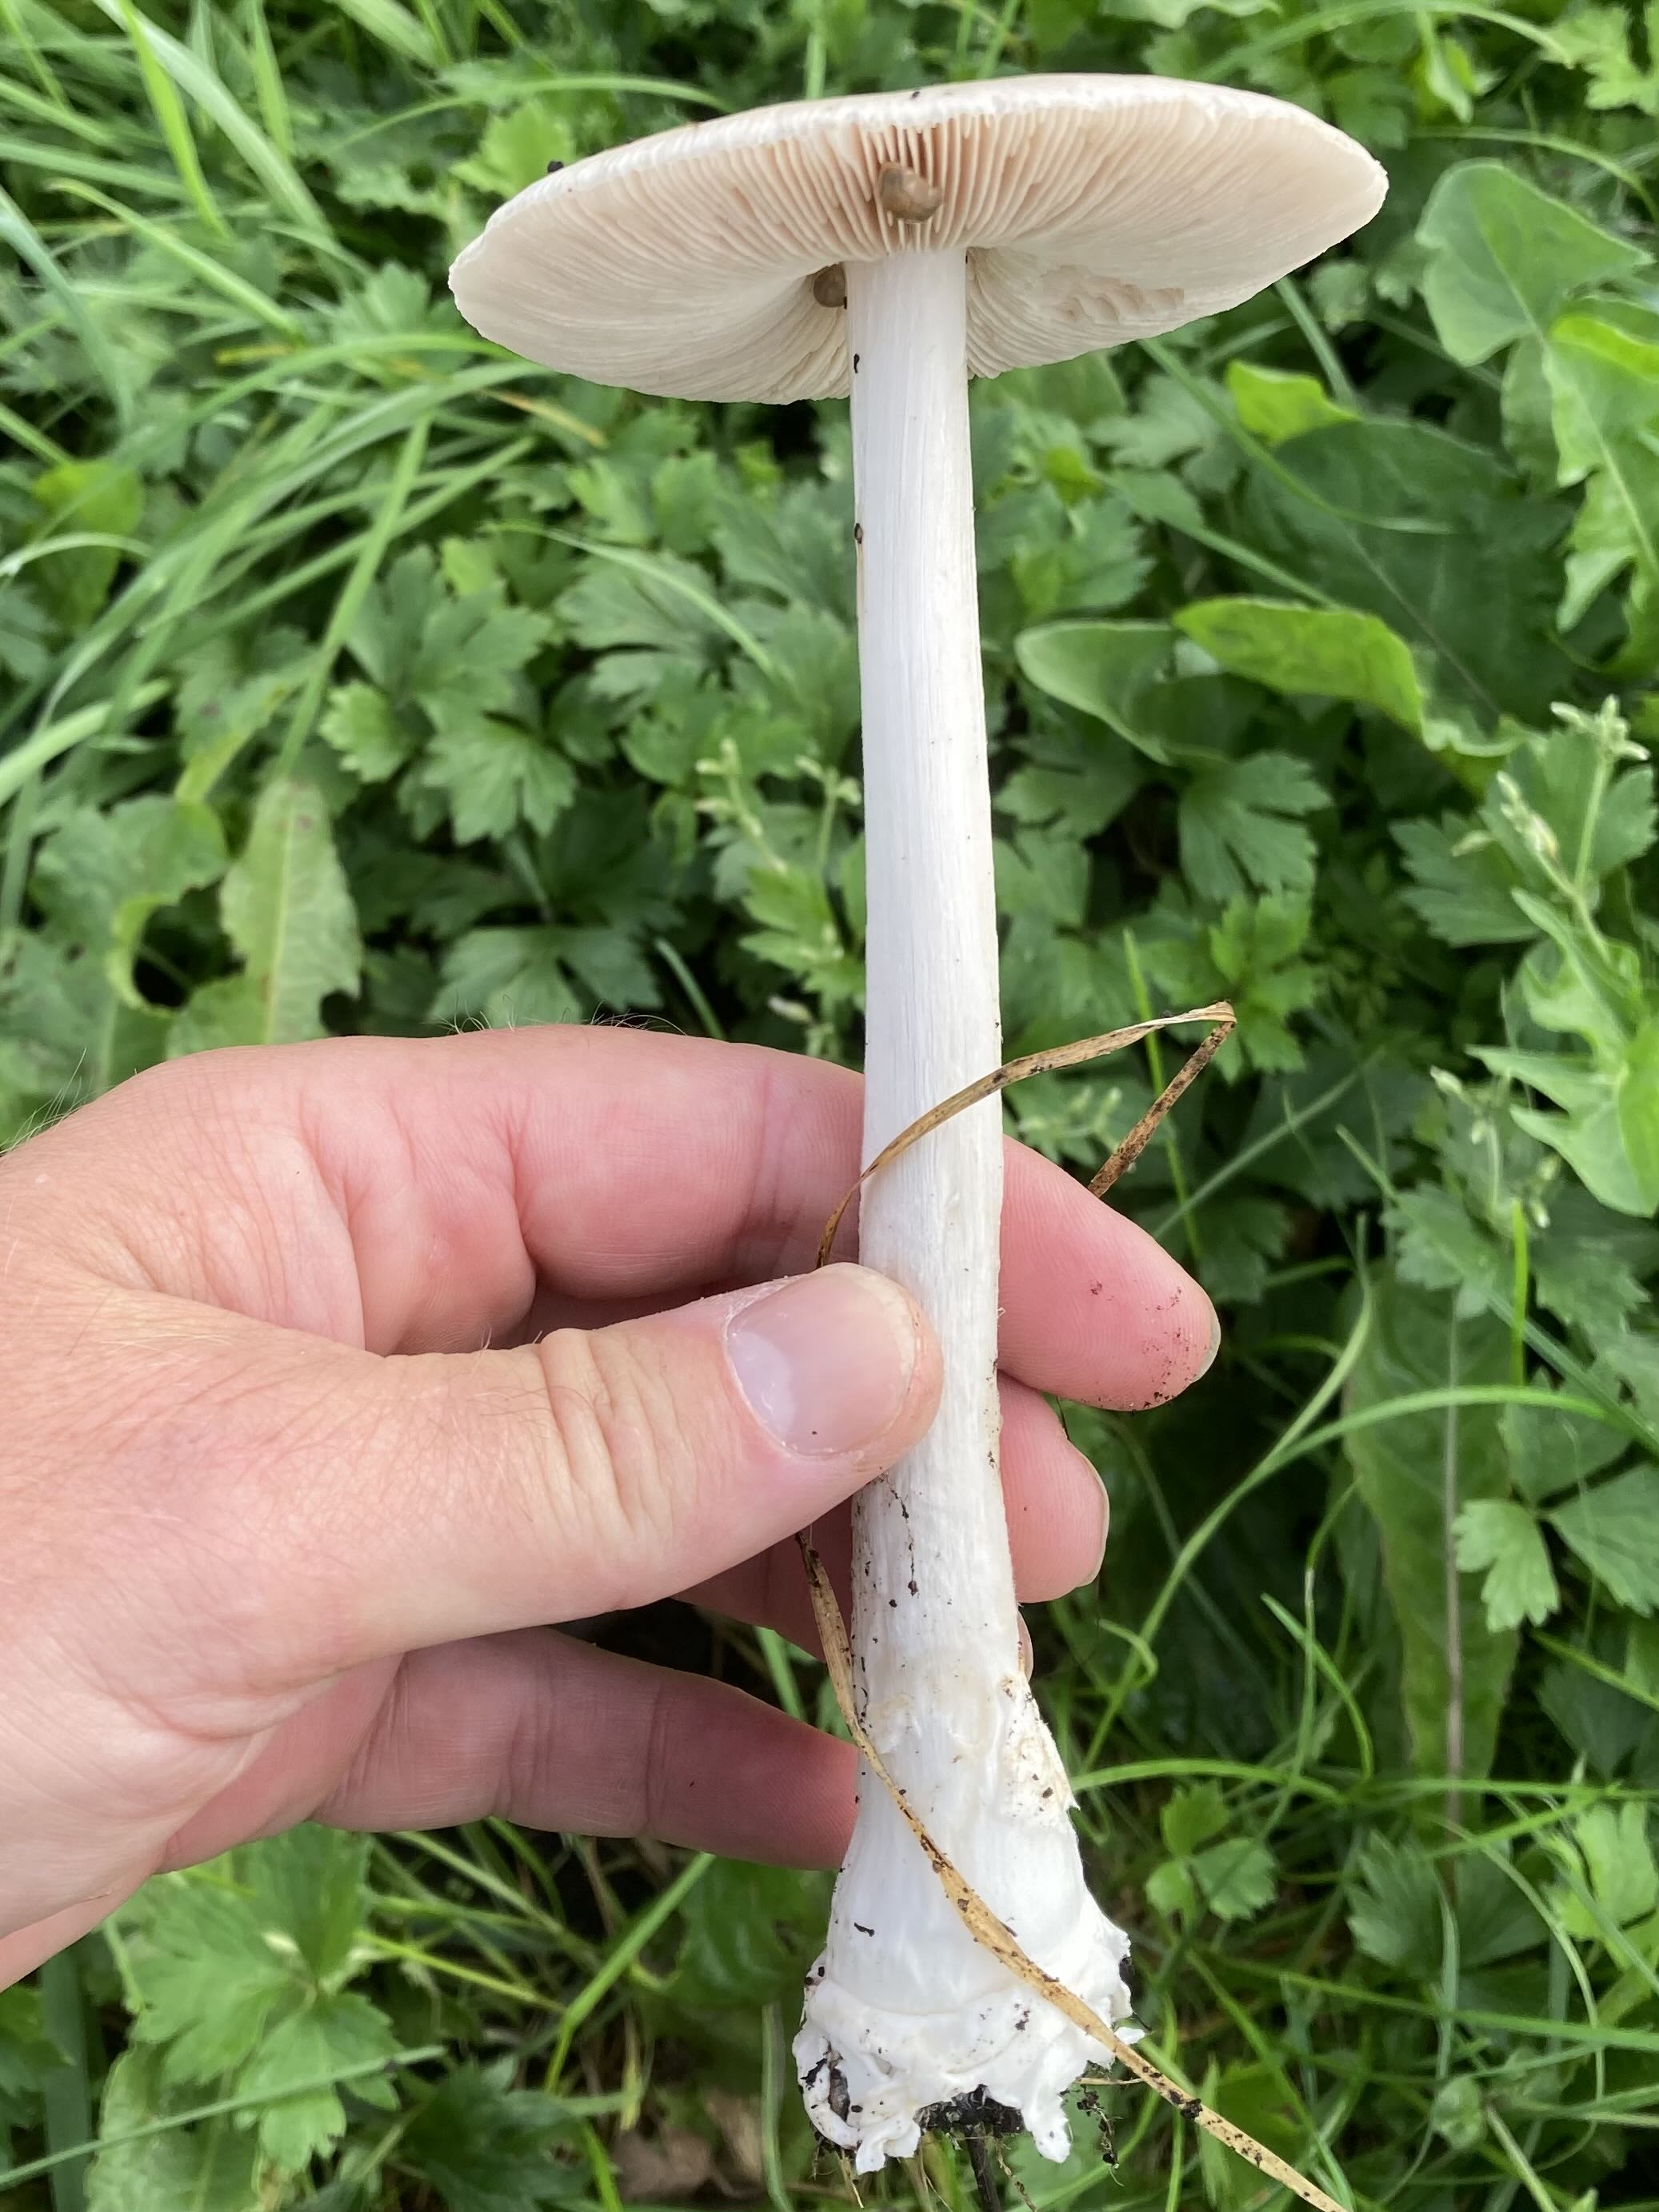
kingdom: Fungi
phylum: Basidiomycota
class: Agaricomycetes
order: Agaricales
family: Pluteaceae
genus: Volvopluteus
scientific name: Volvopluteus gloiocephalus
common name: høj posesvamp
